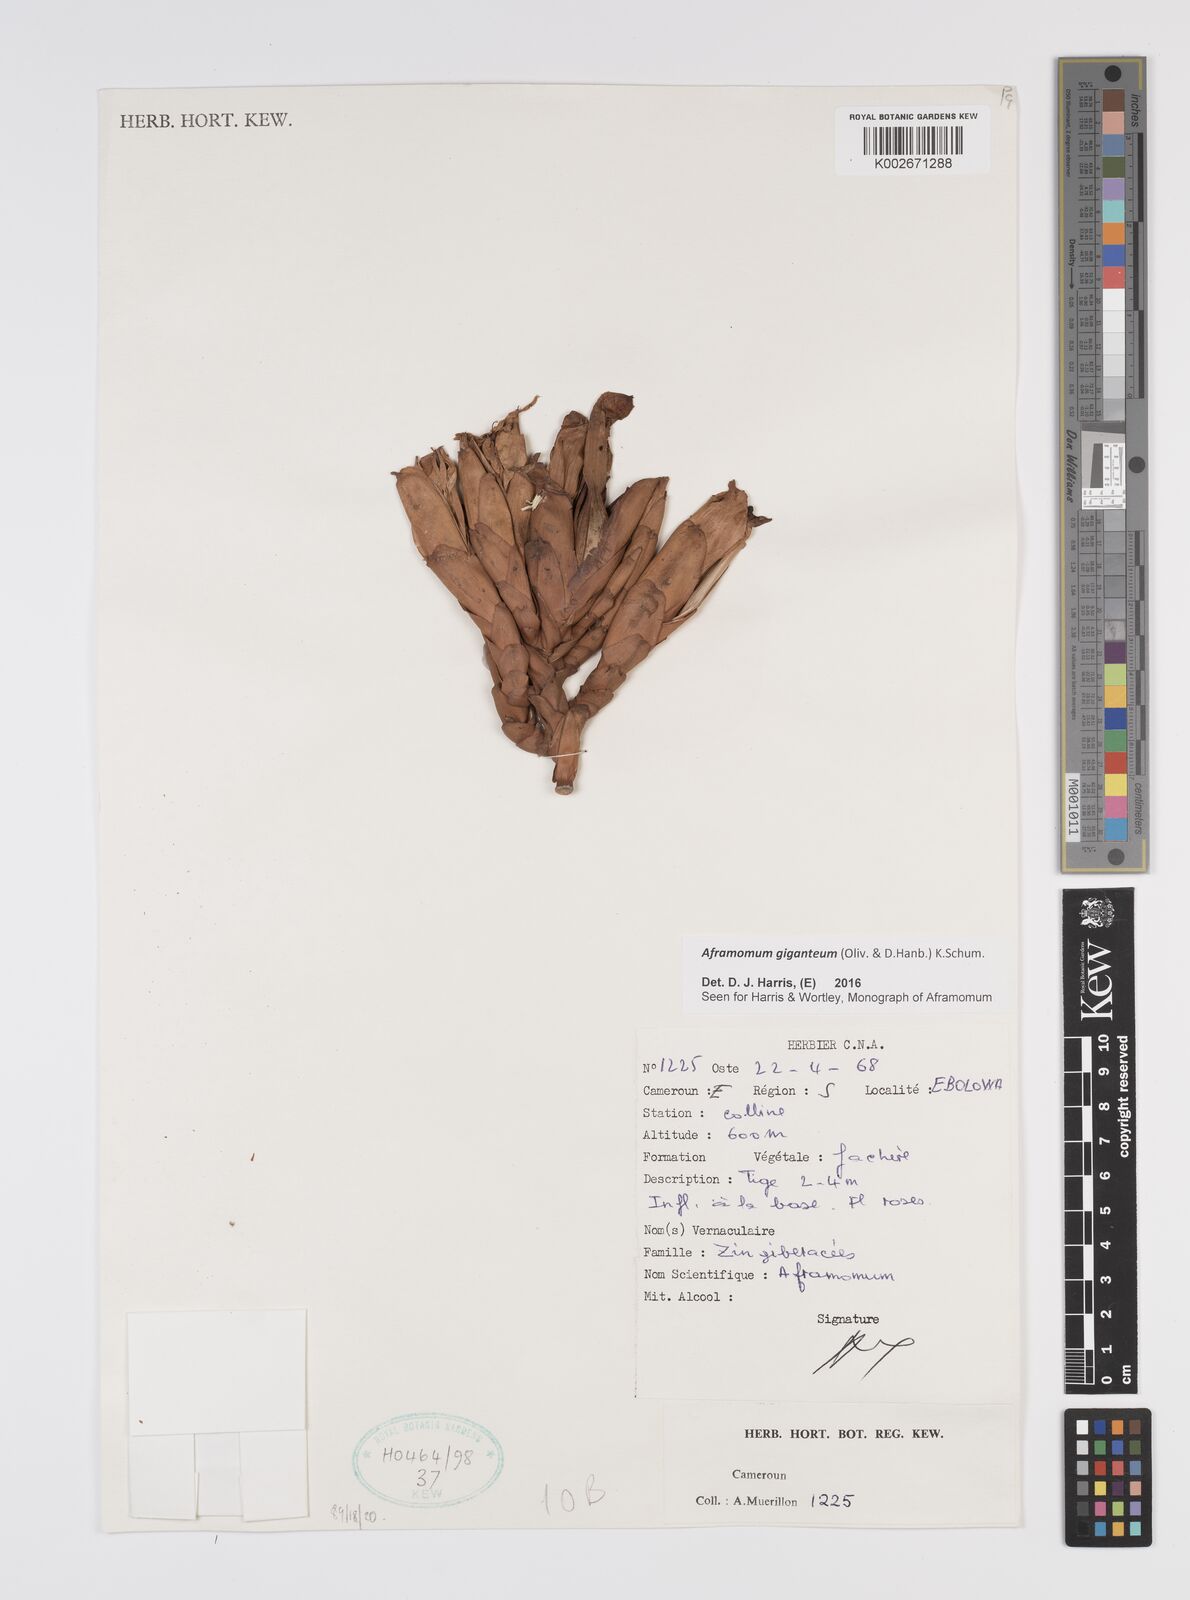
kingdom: Plantae
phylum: Tracheophyta
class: Liliopsida
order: Zingiberales
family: Zingiberaceae
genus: Aframomum
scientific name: Aframomum giganteum
